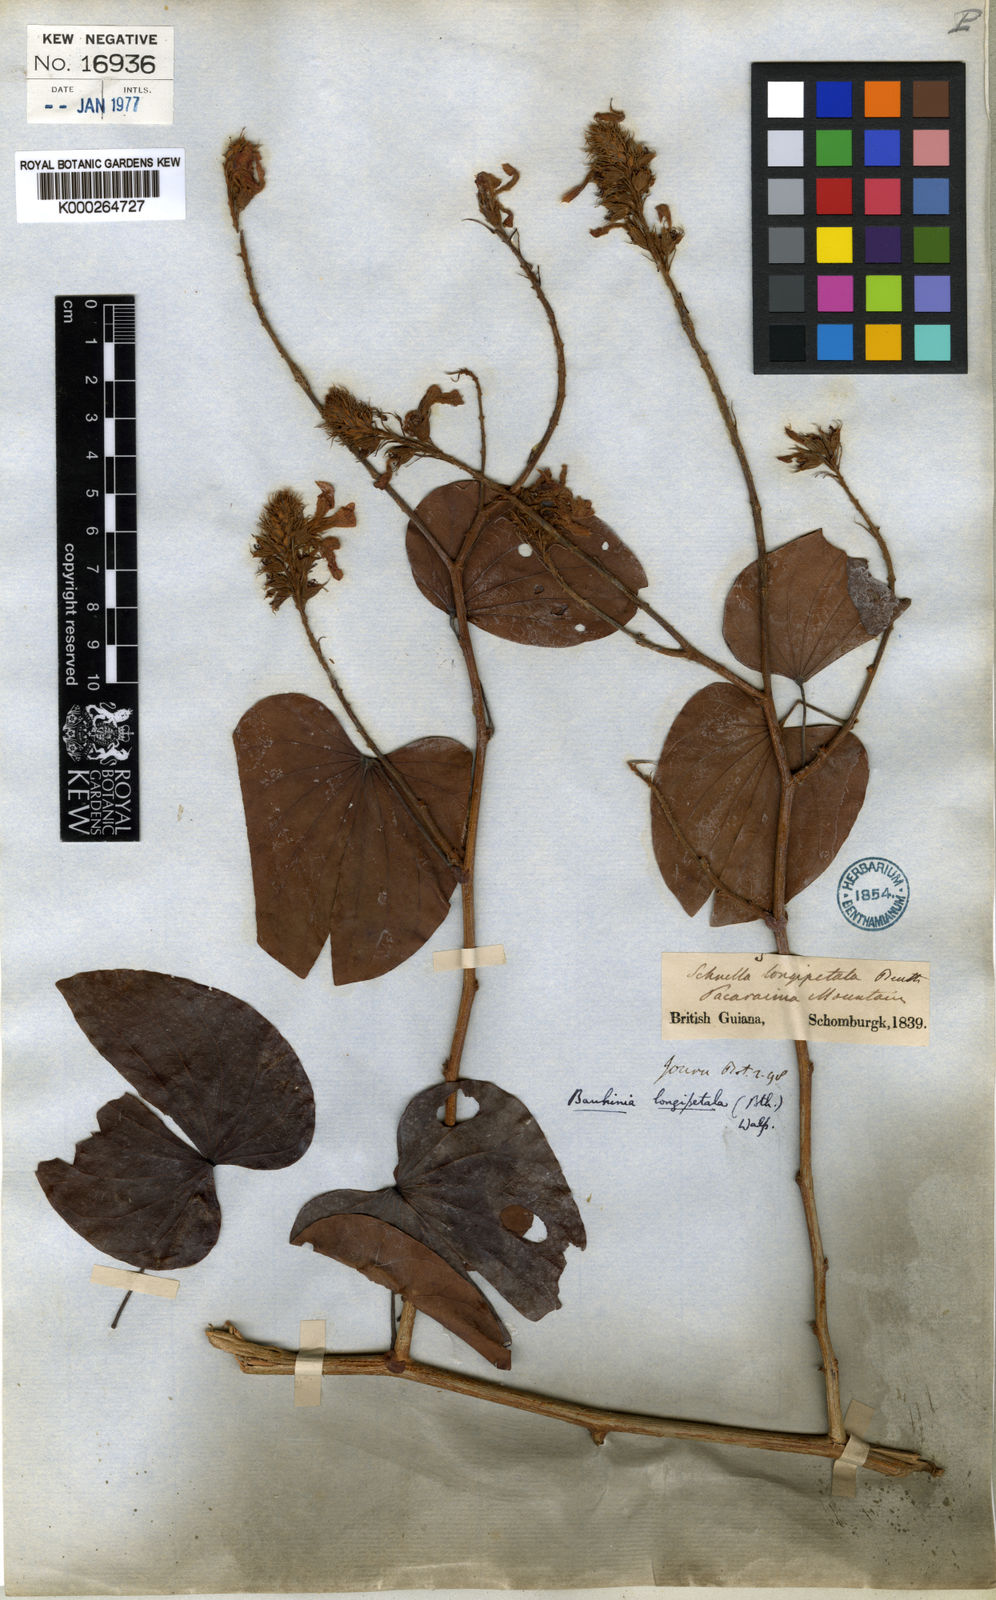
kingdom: Plantae
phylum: Tracheophyta
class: Magnoliopsida
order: Fabales
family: Fabaceae
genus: Schnella
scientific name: Schnella glabra
